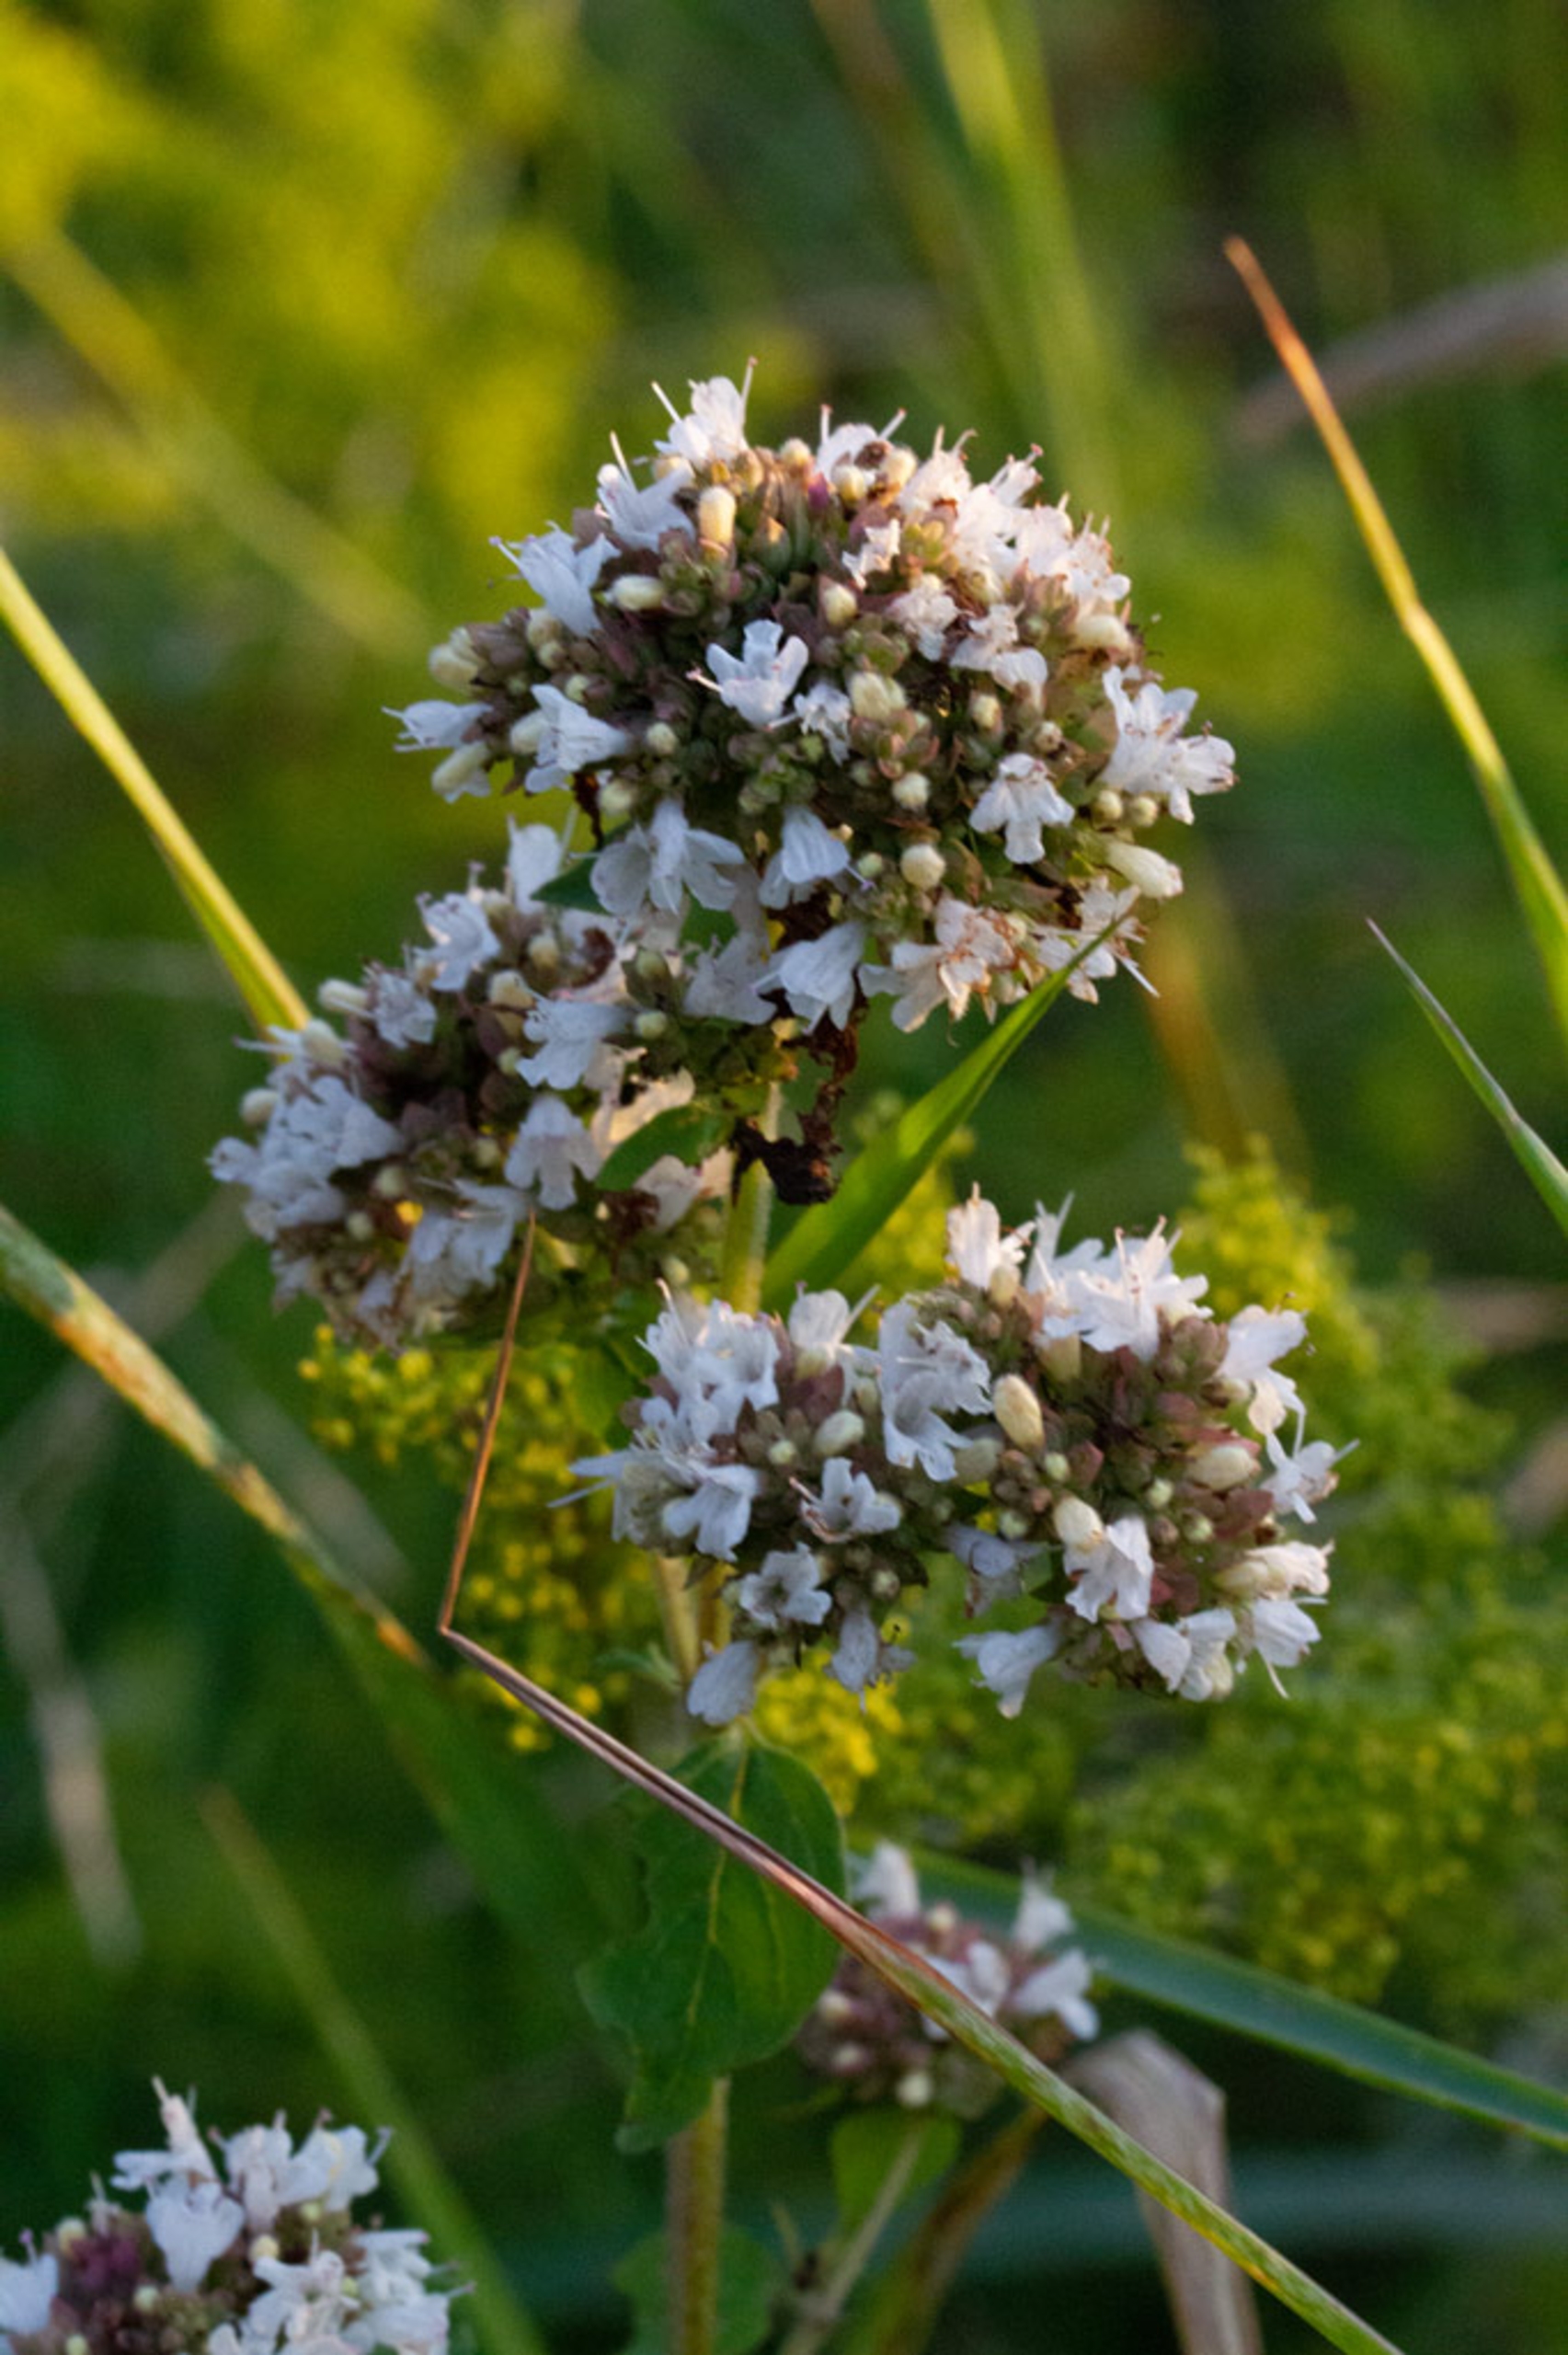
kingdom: Plantae
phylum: Tracheophyta
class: Magnoliopsida
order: Lamiales
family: Lamiaceae
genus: Origanum
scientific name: Origanum vulgare
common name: Merian
